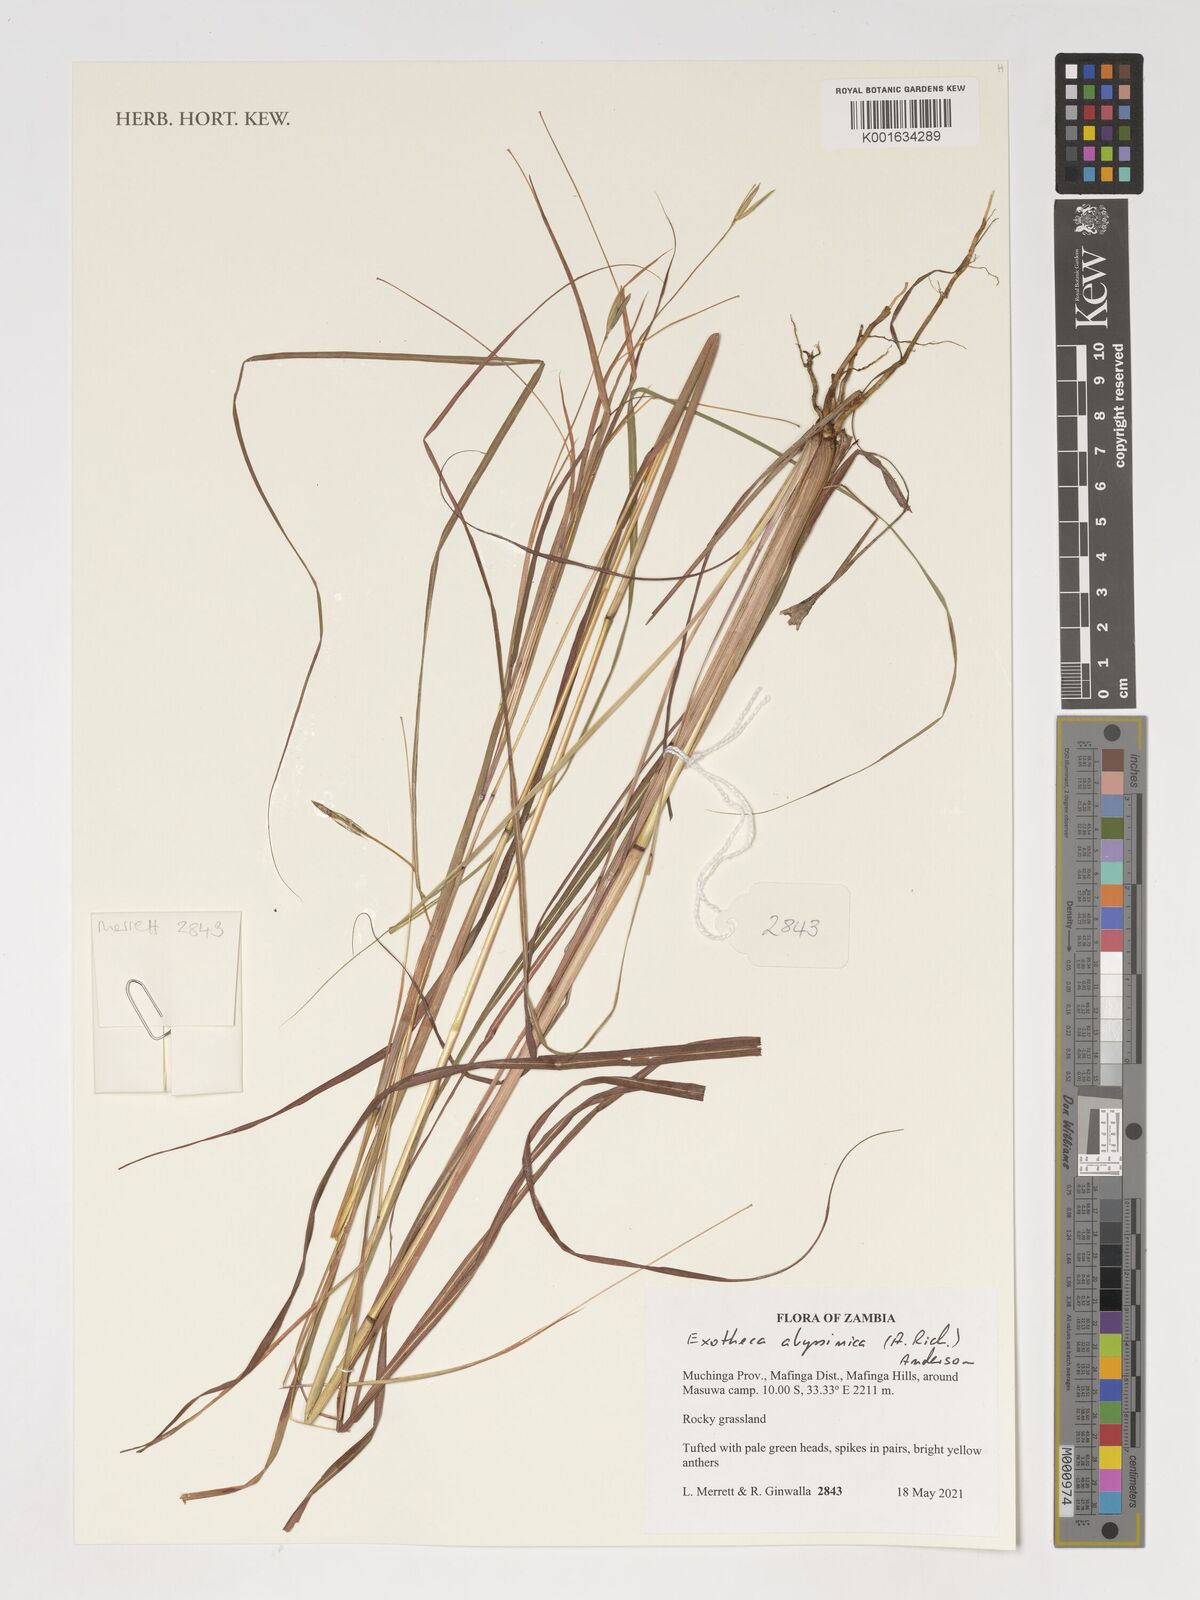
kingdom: Plantae
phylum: Tracheophyta
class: Liliopsida
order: Poales
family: Poaceae
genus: Exotheca
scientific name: Exotheca abyssinica
